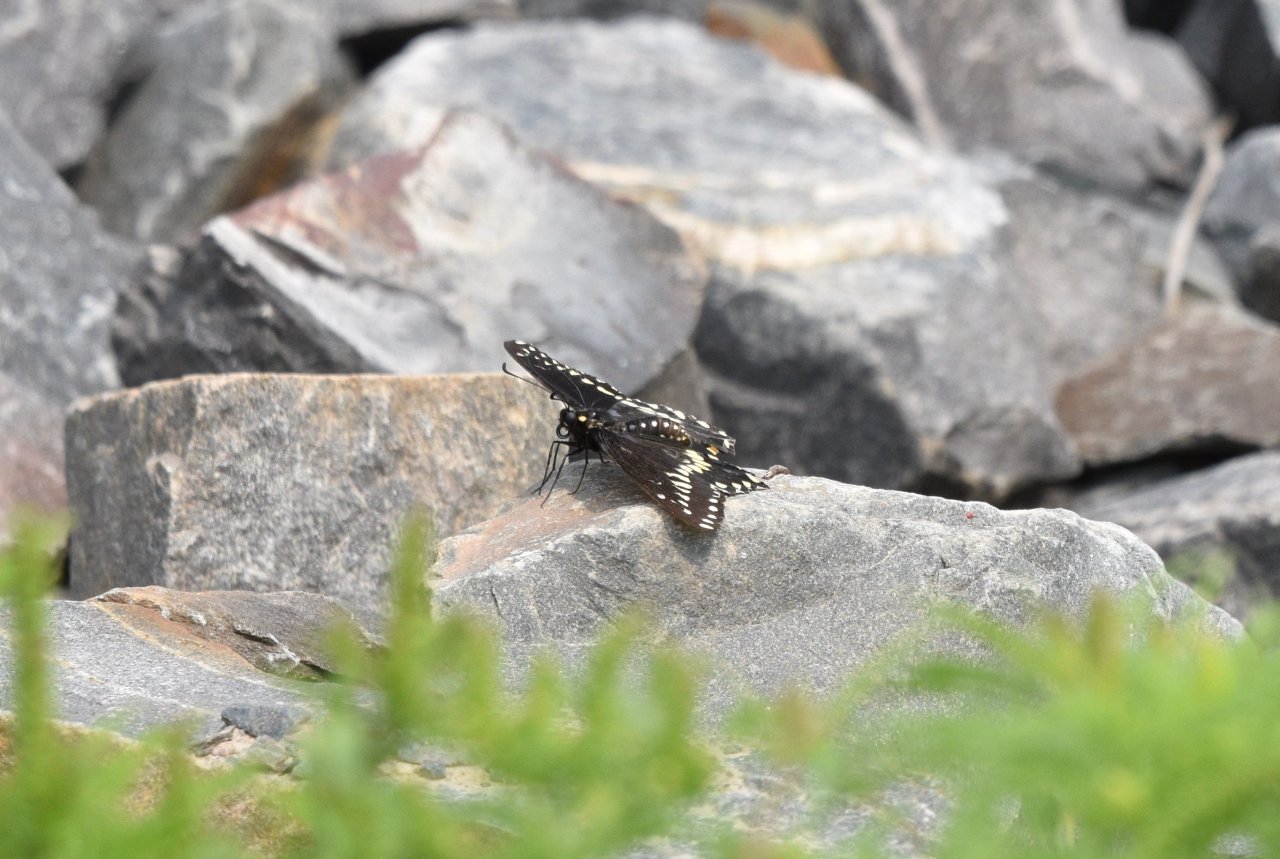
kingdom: Animalia
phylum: Arthropoda
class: Insecta
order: Lepidoptera
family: Papilionidae
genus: Papilio
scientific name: Papilio polyxenes
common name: Black Swallowtail
